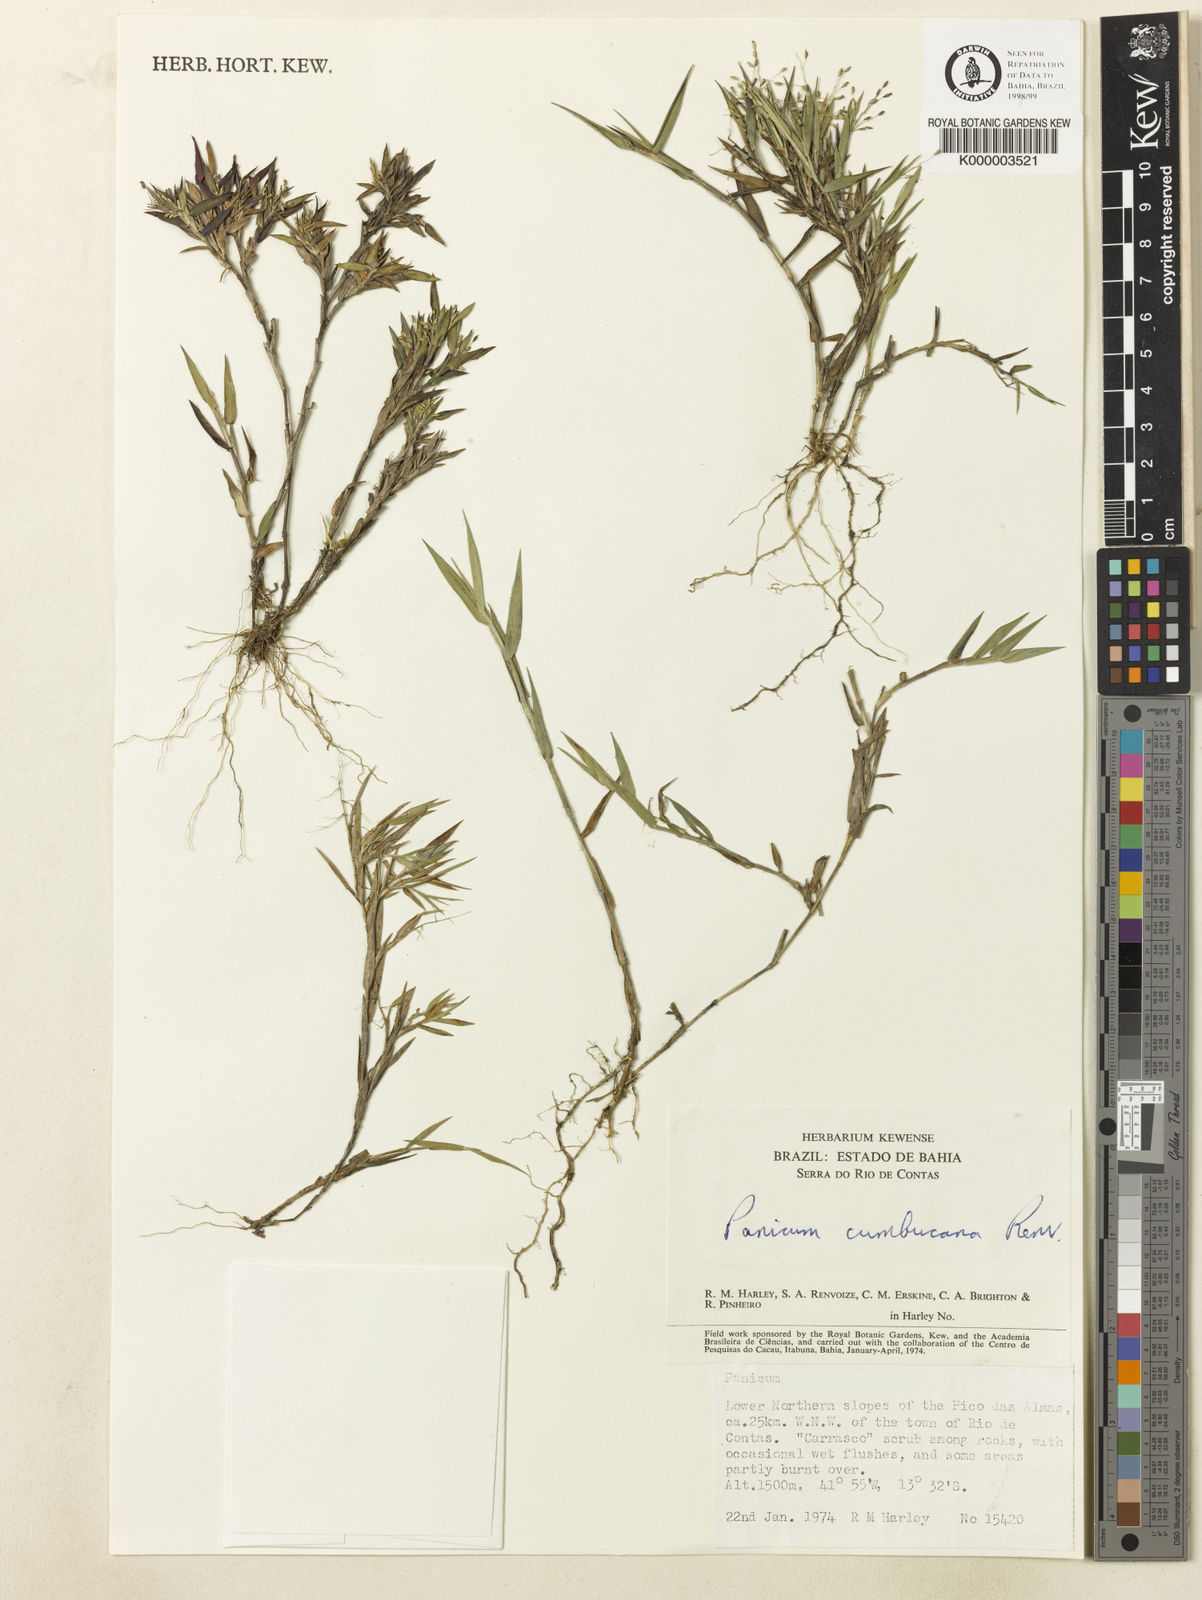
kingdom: Plantae
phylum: Tracheophyta
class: Liliopsida
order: Poales
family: Poaceae
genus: Dichanthelium
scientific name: Dichanthelium cumbucanum
